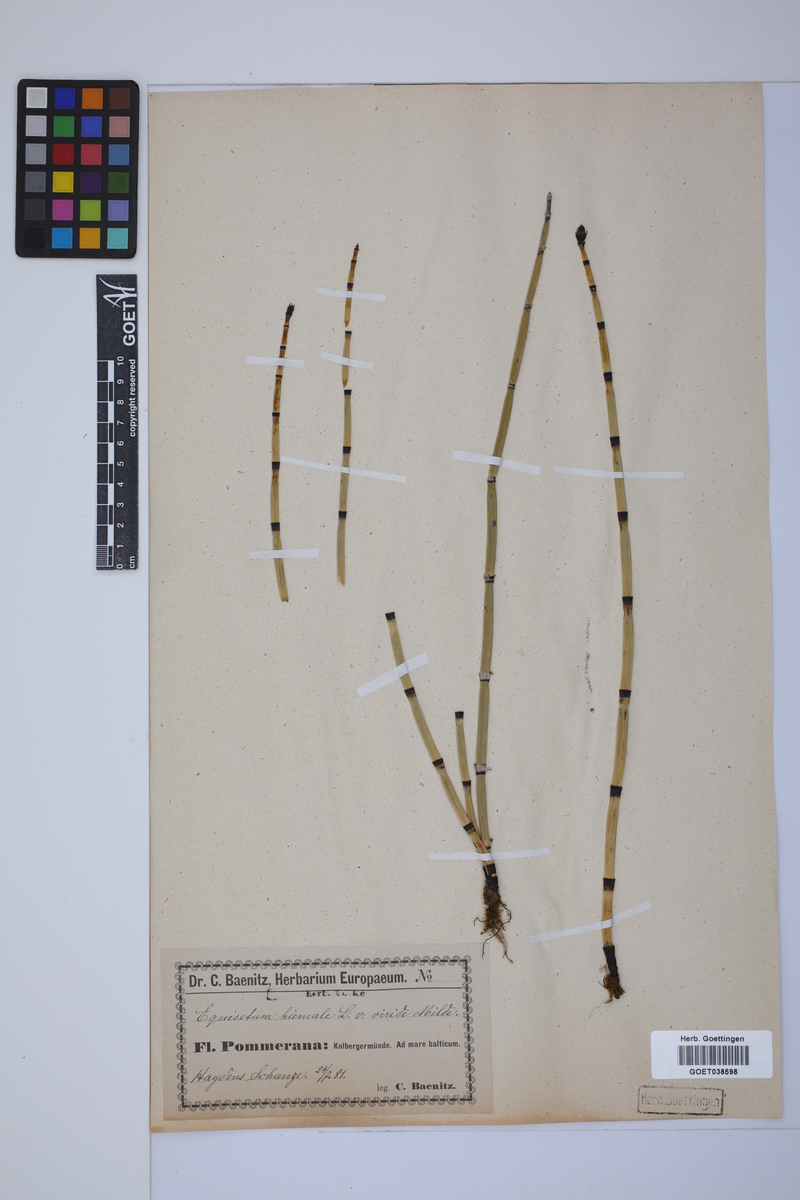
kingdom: Plantae
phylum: Tracheophyta
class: Polypodiopsida
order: Equisetales
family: Equisetaceae
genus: Equisetum
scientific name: Equisetum hyemale
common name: Rough horsetail
